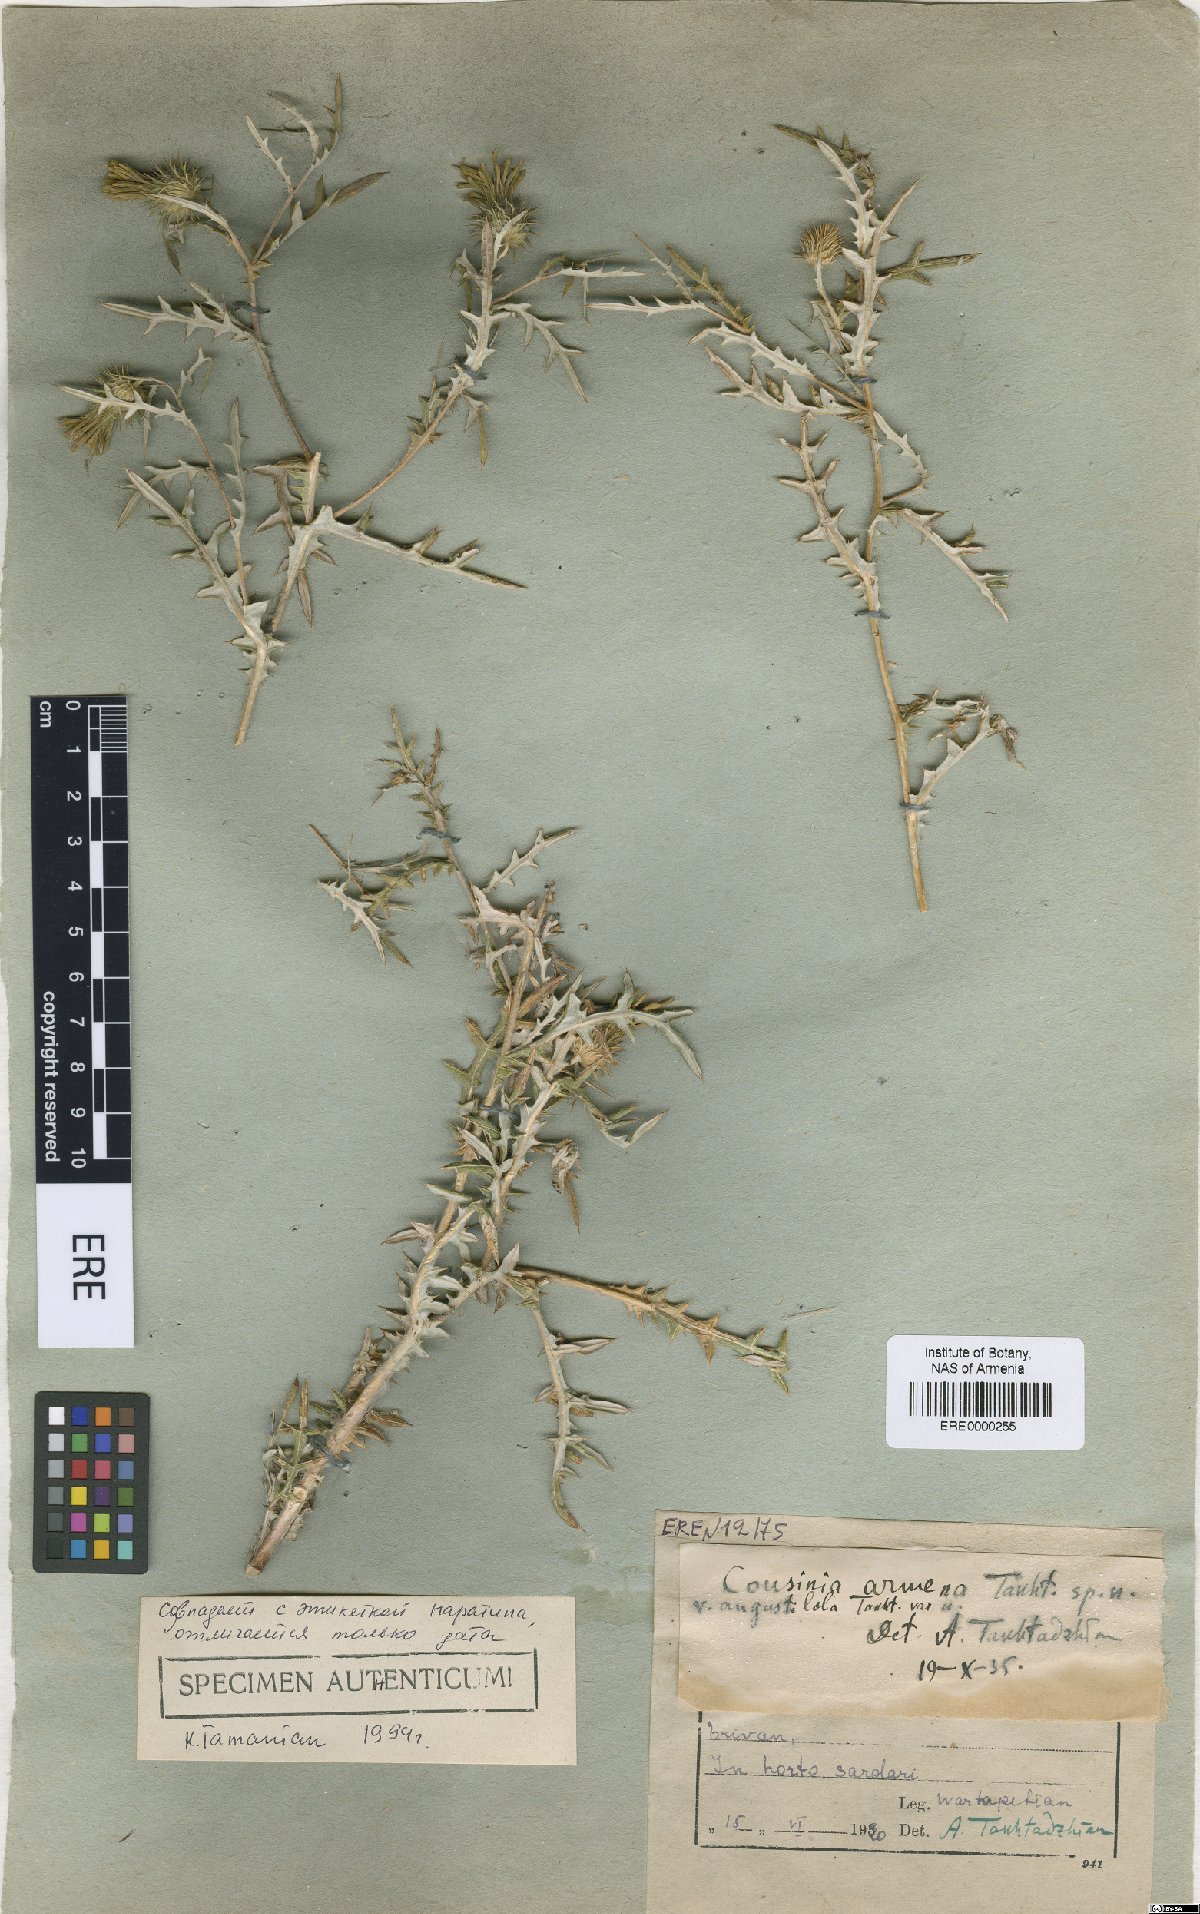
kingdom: Plantae
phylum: Tracheophyta
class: Magnoliopsida
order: Asterales
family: Asteraceae
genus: Cousinia
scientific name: Cousinia armena
